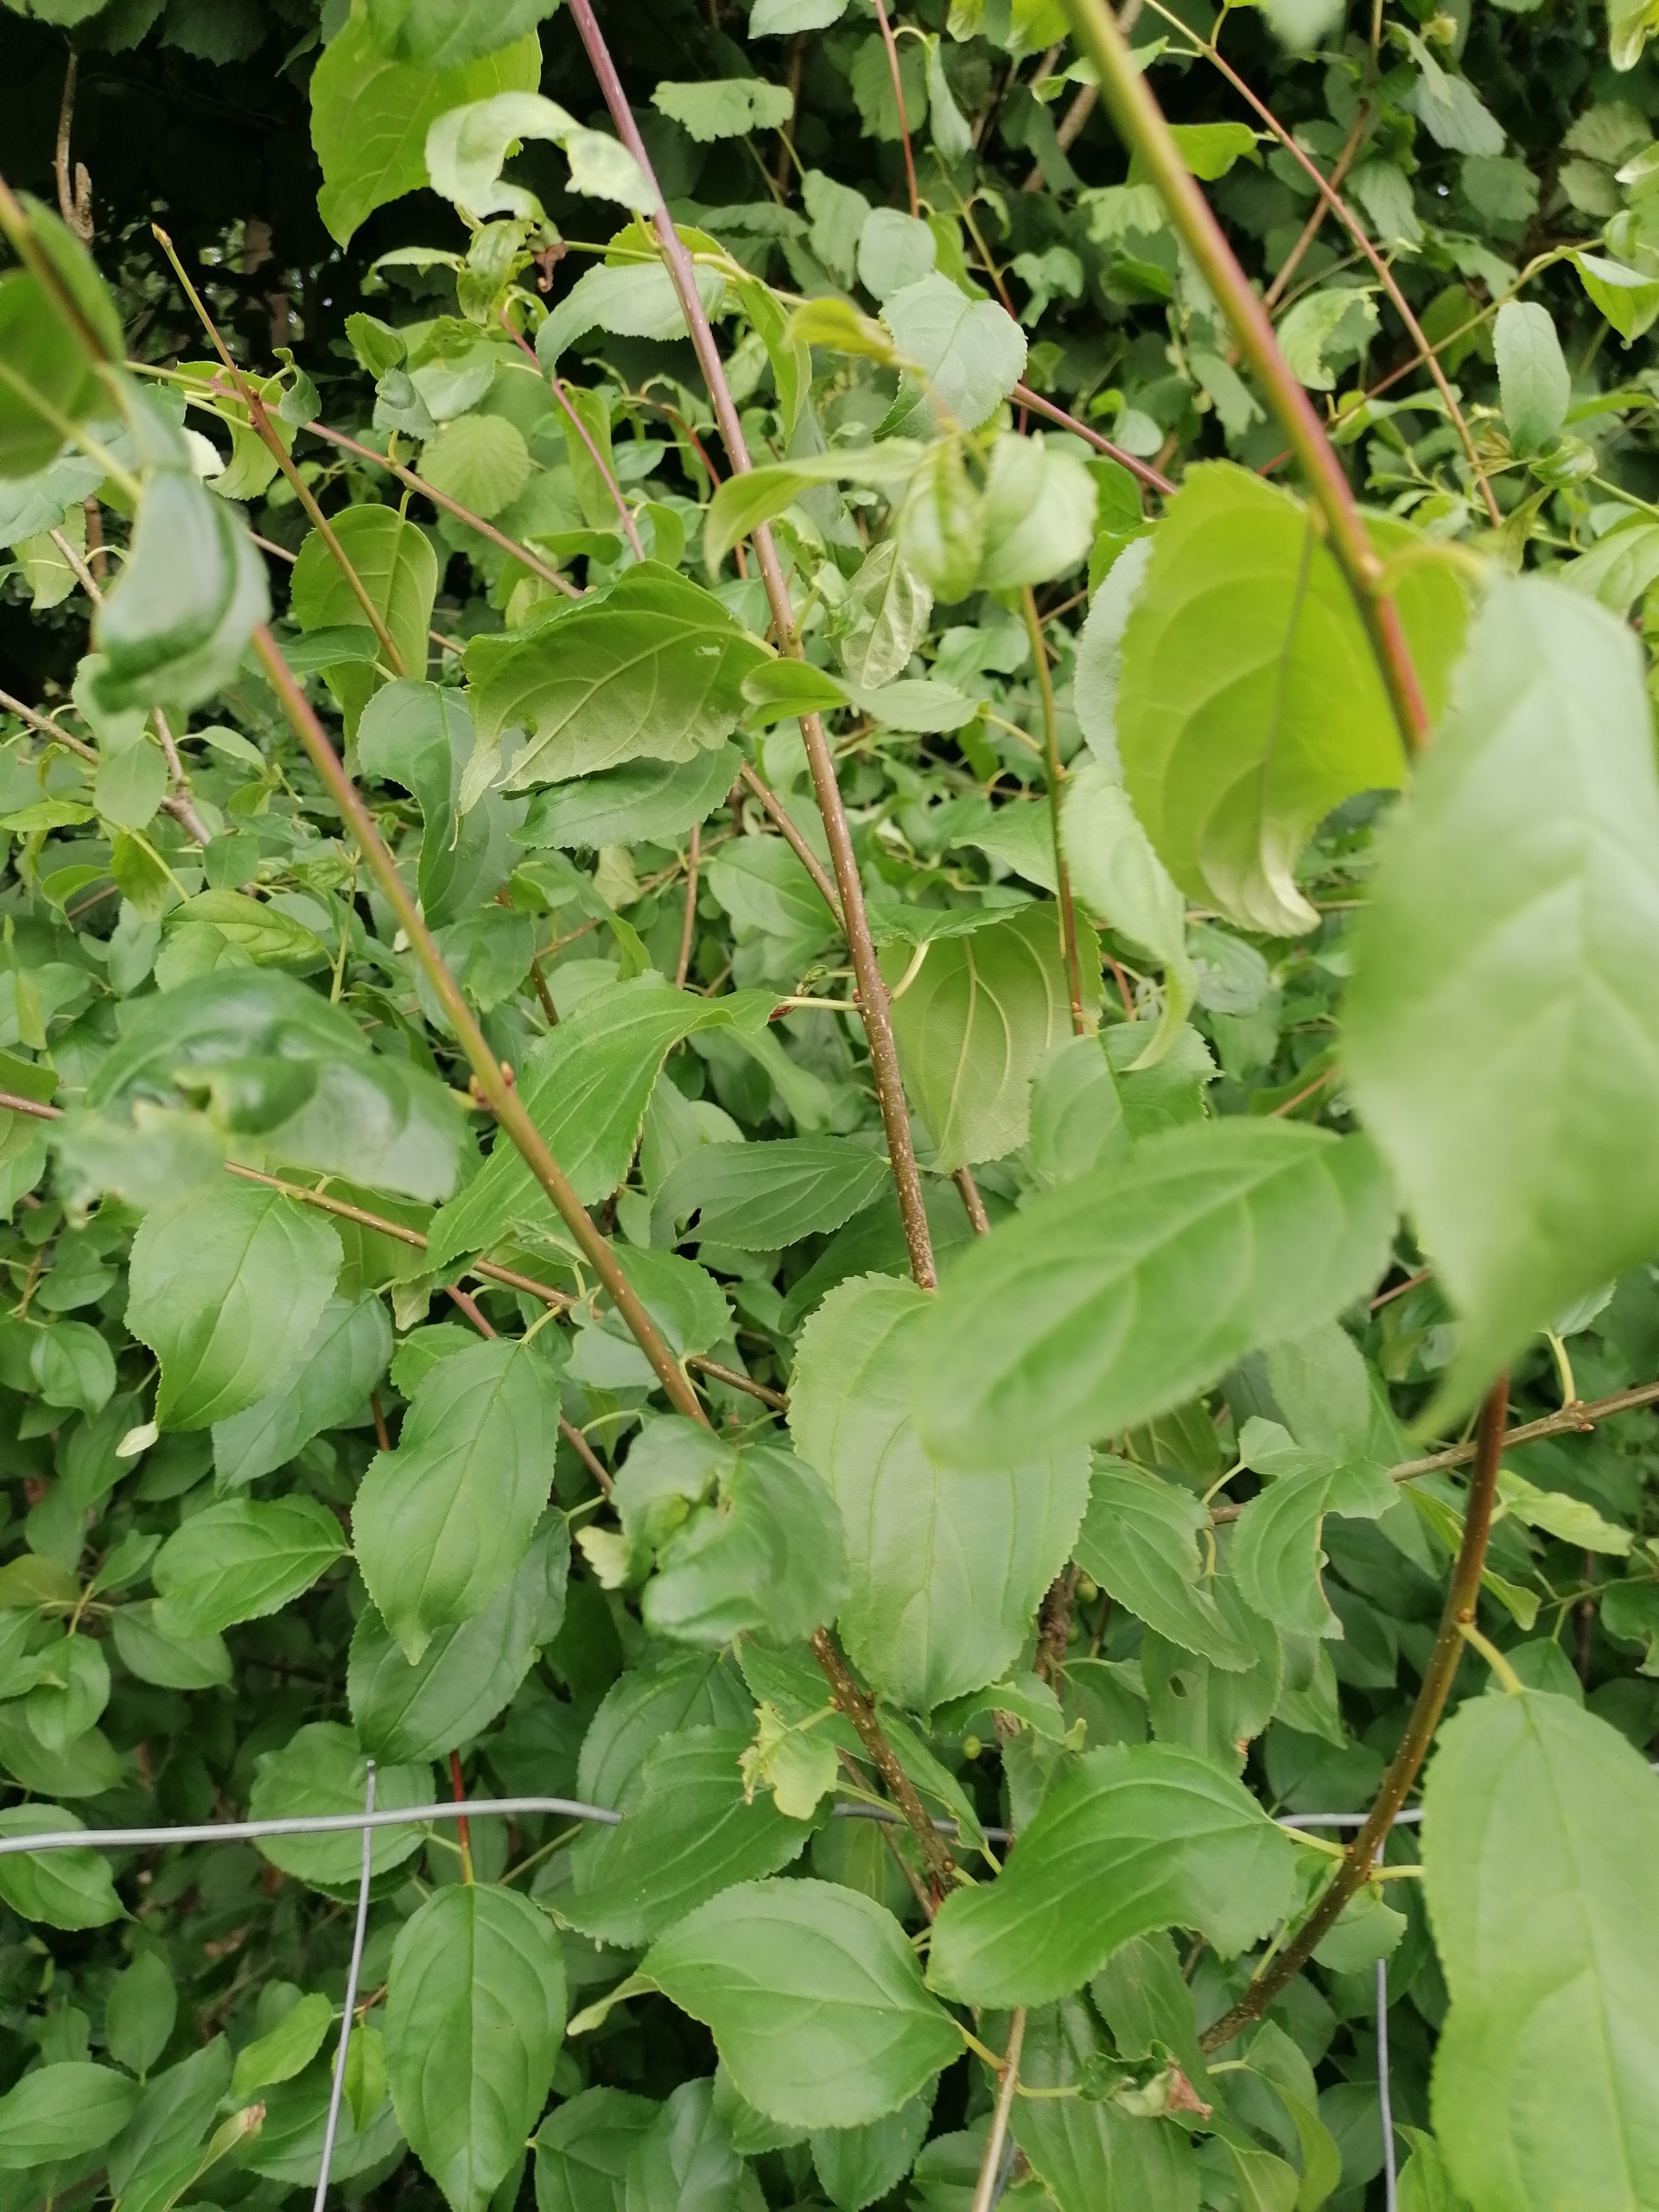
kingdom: Plantae
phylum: Tracheophyta
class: Magnoliopsida
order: Rosales
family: Rhamnaceae
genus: Rhamnus
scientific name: Rhamnus cathartica
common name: Vrietorn
